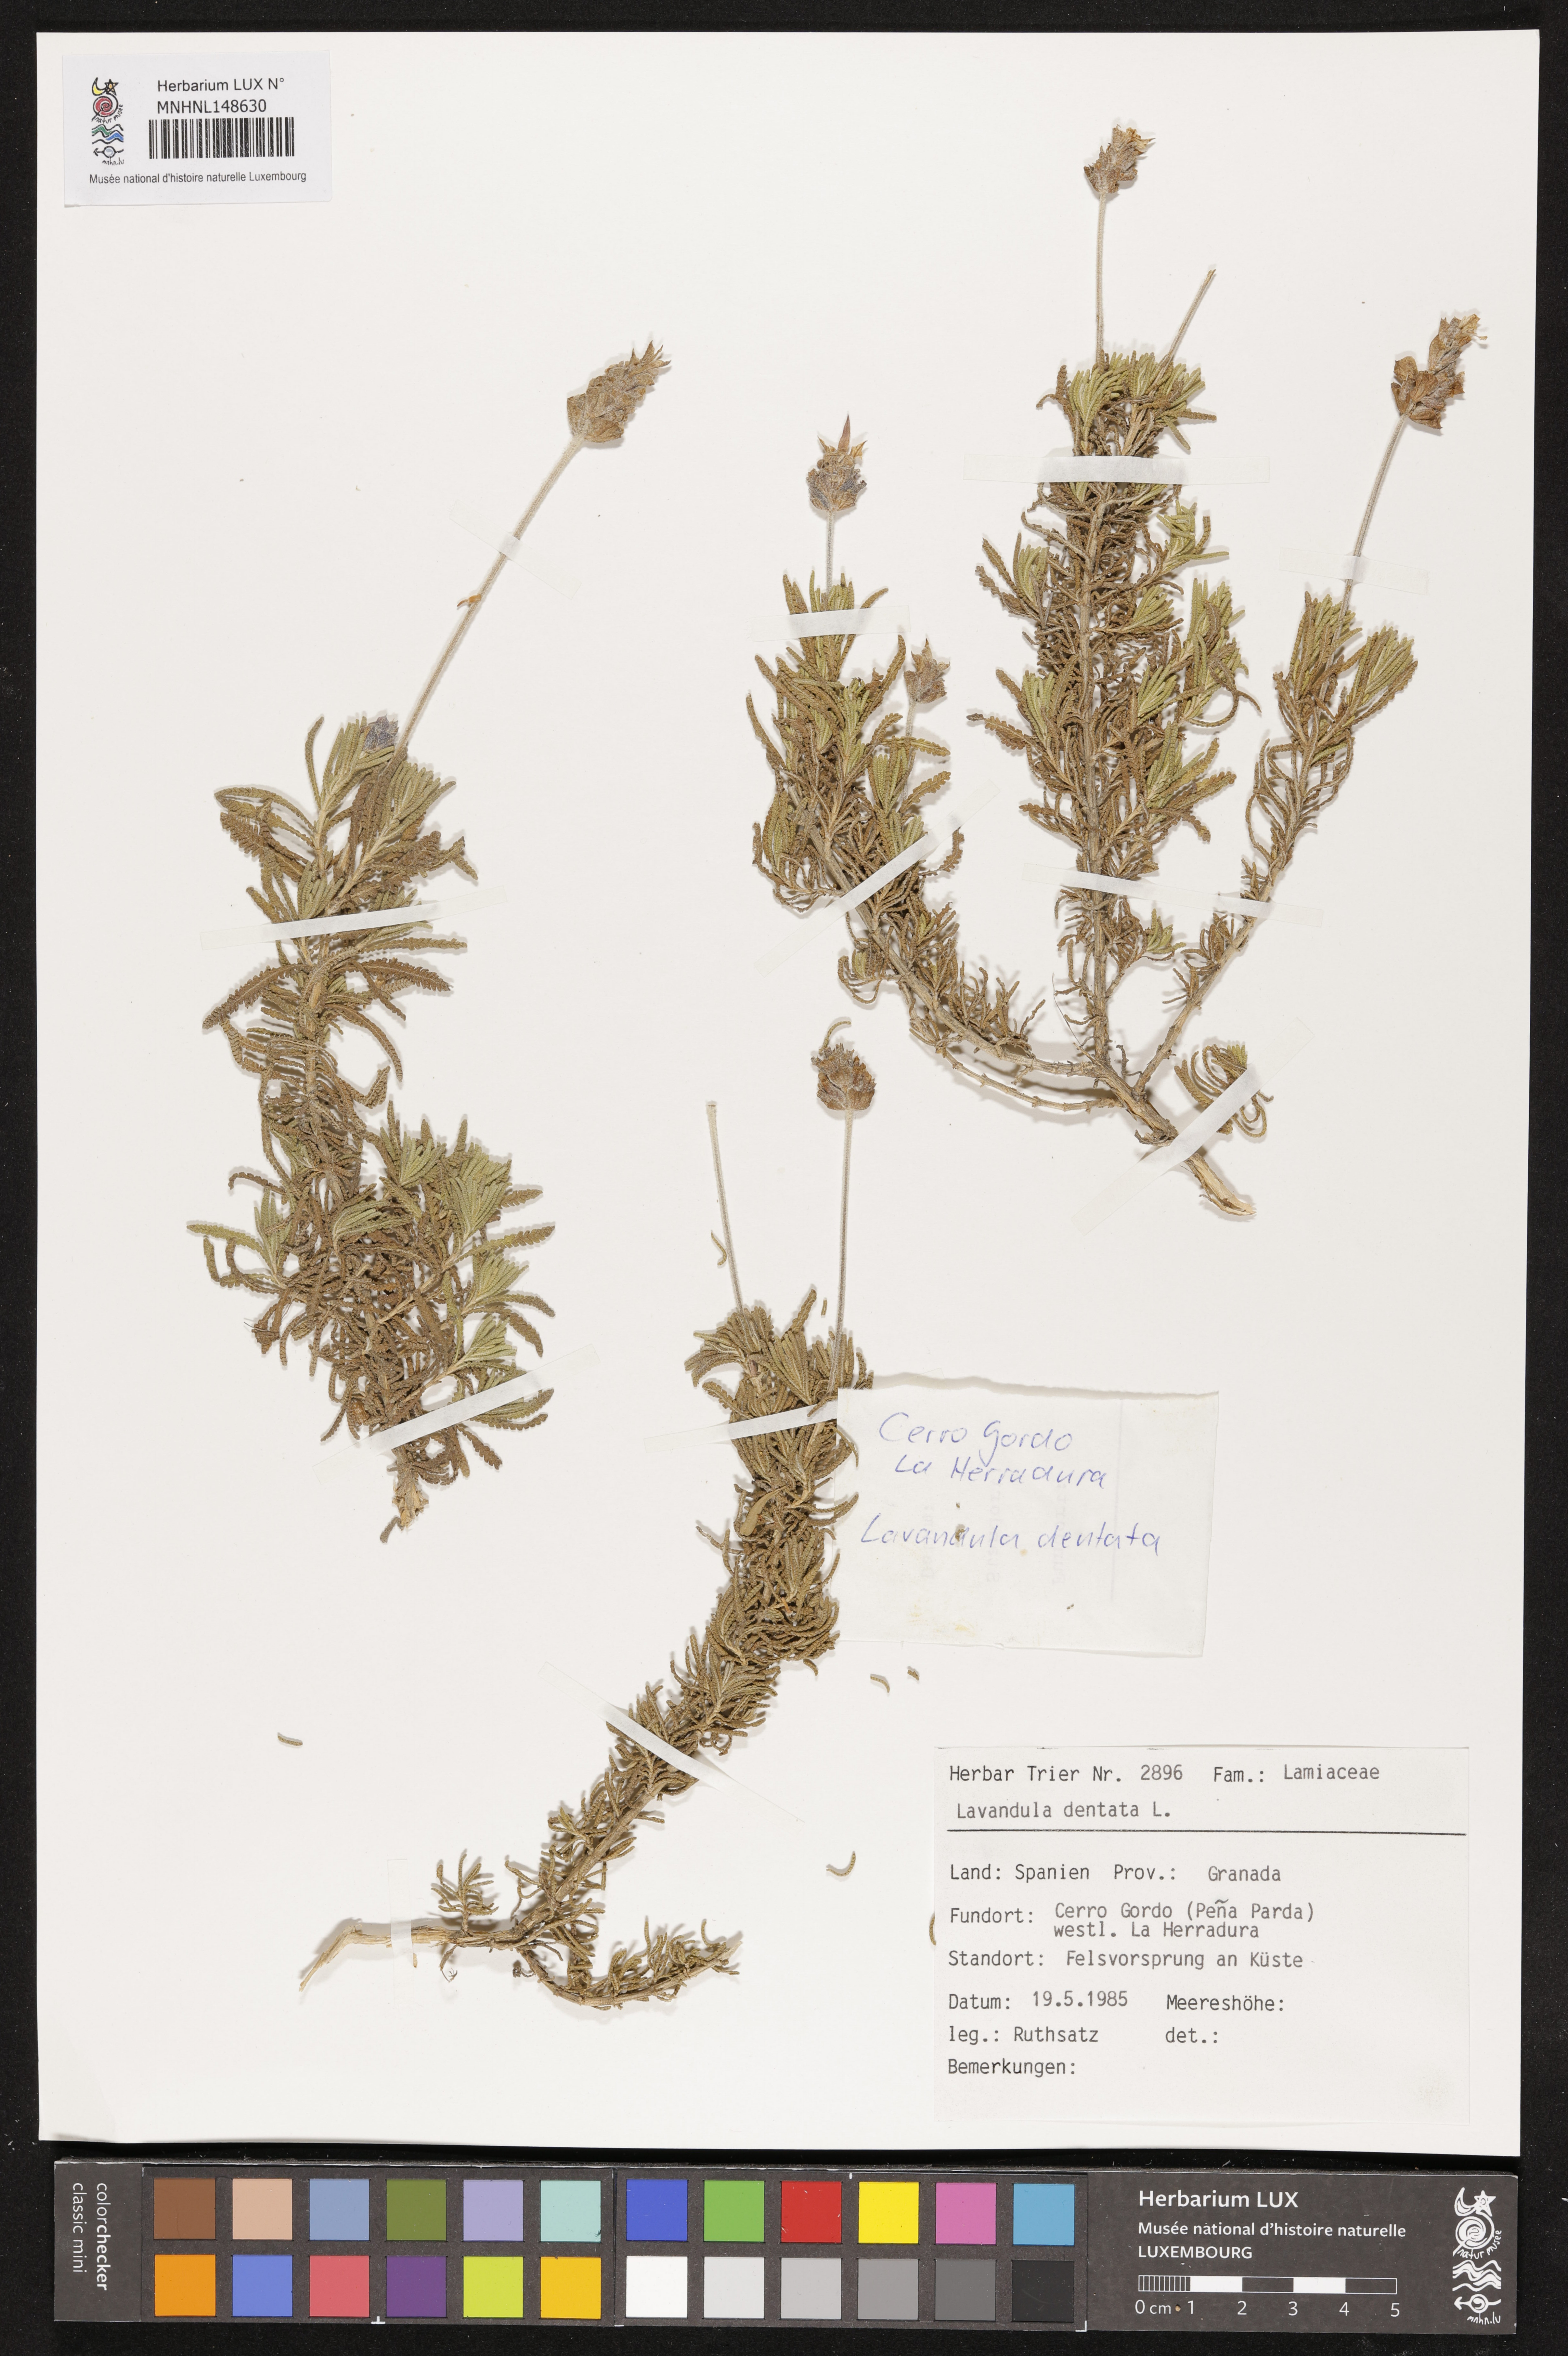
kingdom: Plantae
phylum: Tracheophyta
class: Magnoliopsida
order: Lamiales
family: Lamiaceae
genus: Lavandula
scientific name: Lavandula dentata
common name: French lavender
